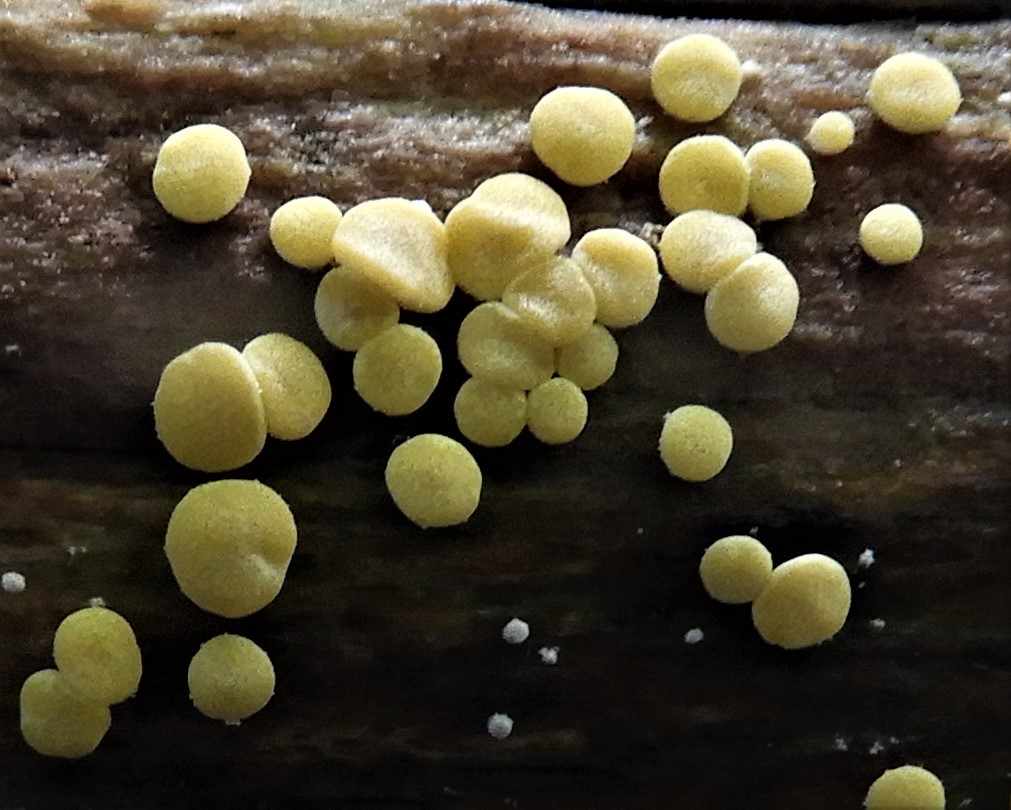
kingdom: Fungi
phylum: Ascomycota
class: Sordariomycetes
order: Hypocreales
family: Hypocreaceae
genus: Trichoderma
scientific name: Trichoderma
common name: kødkerne
